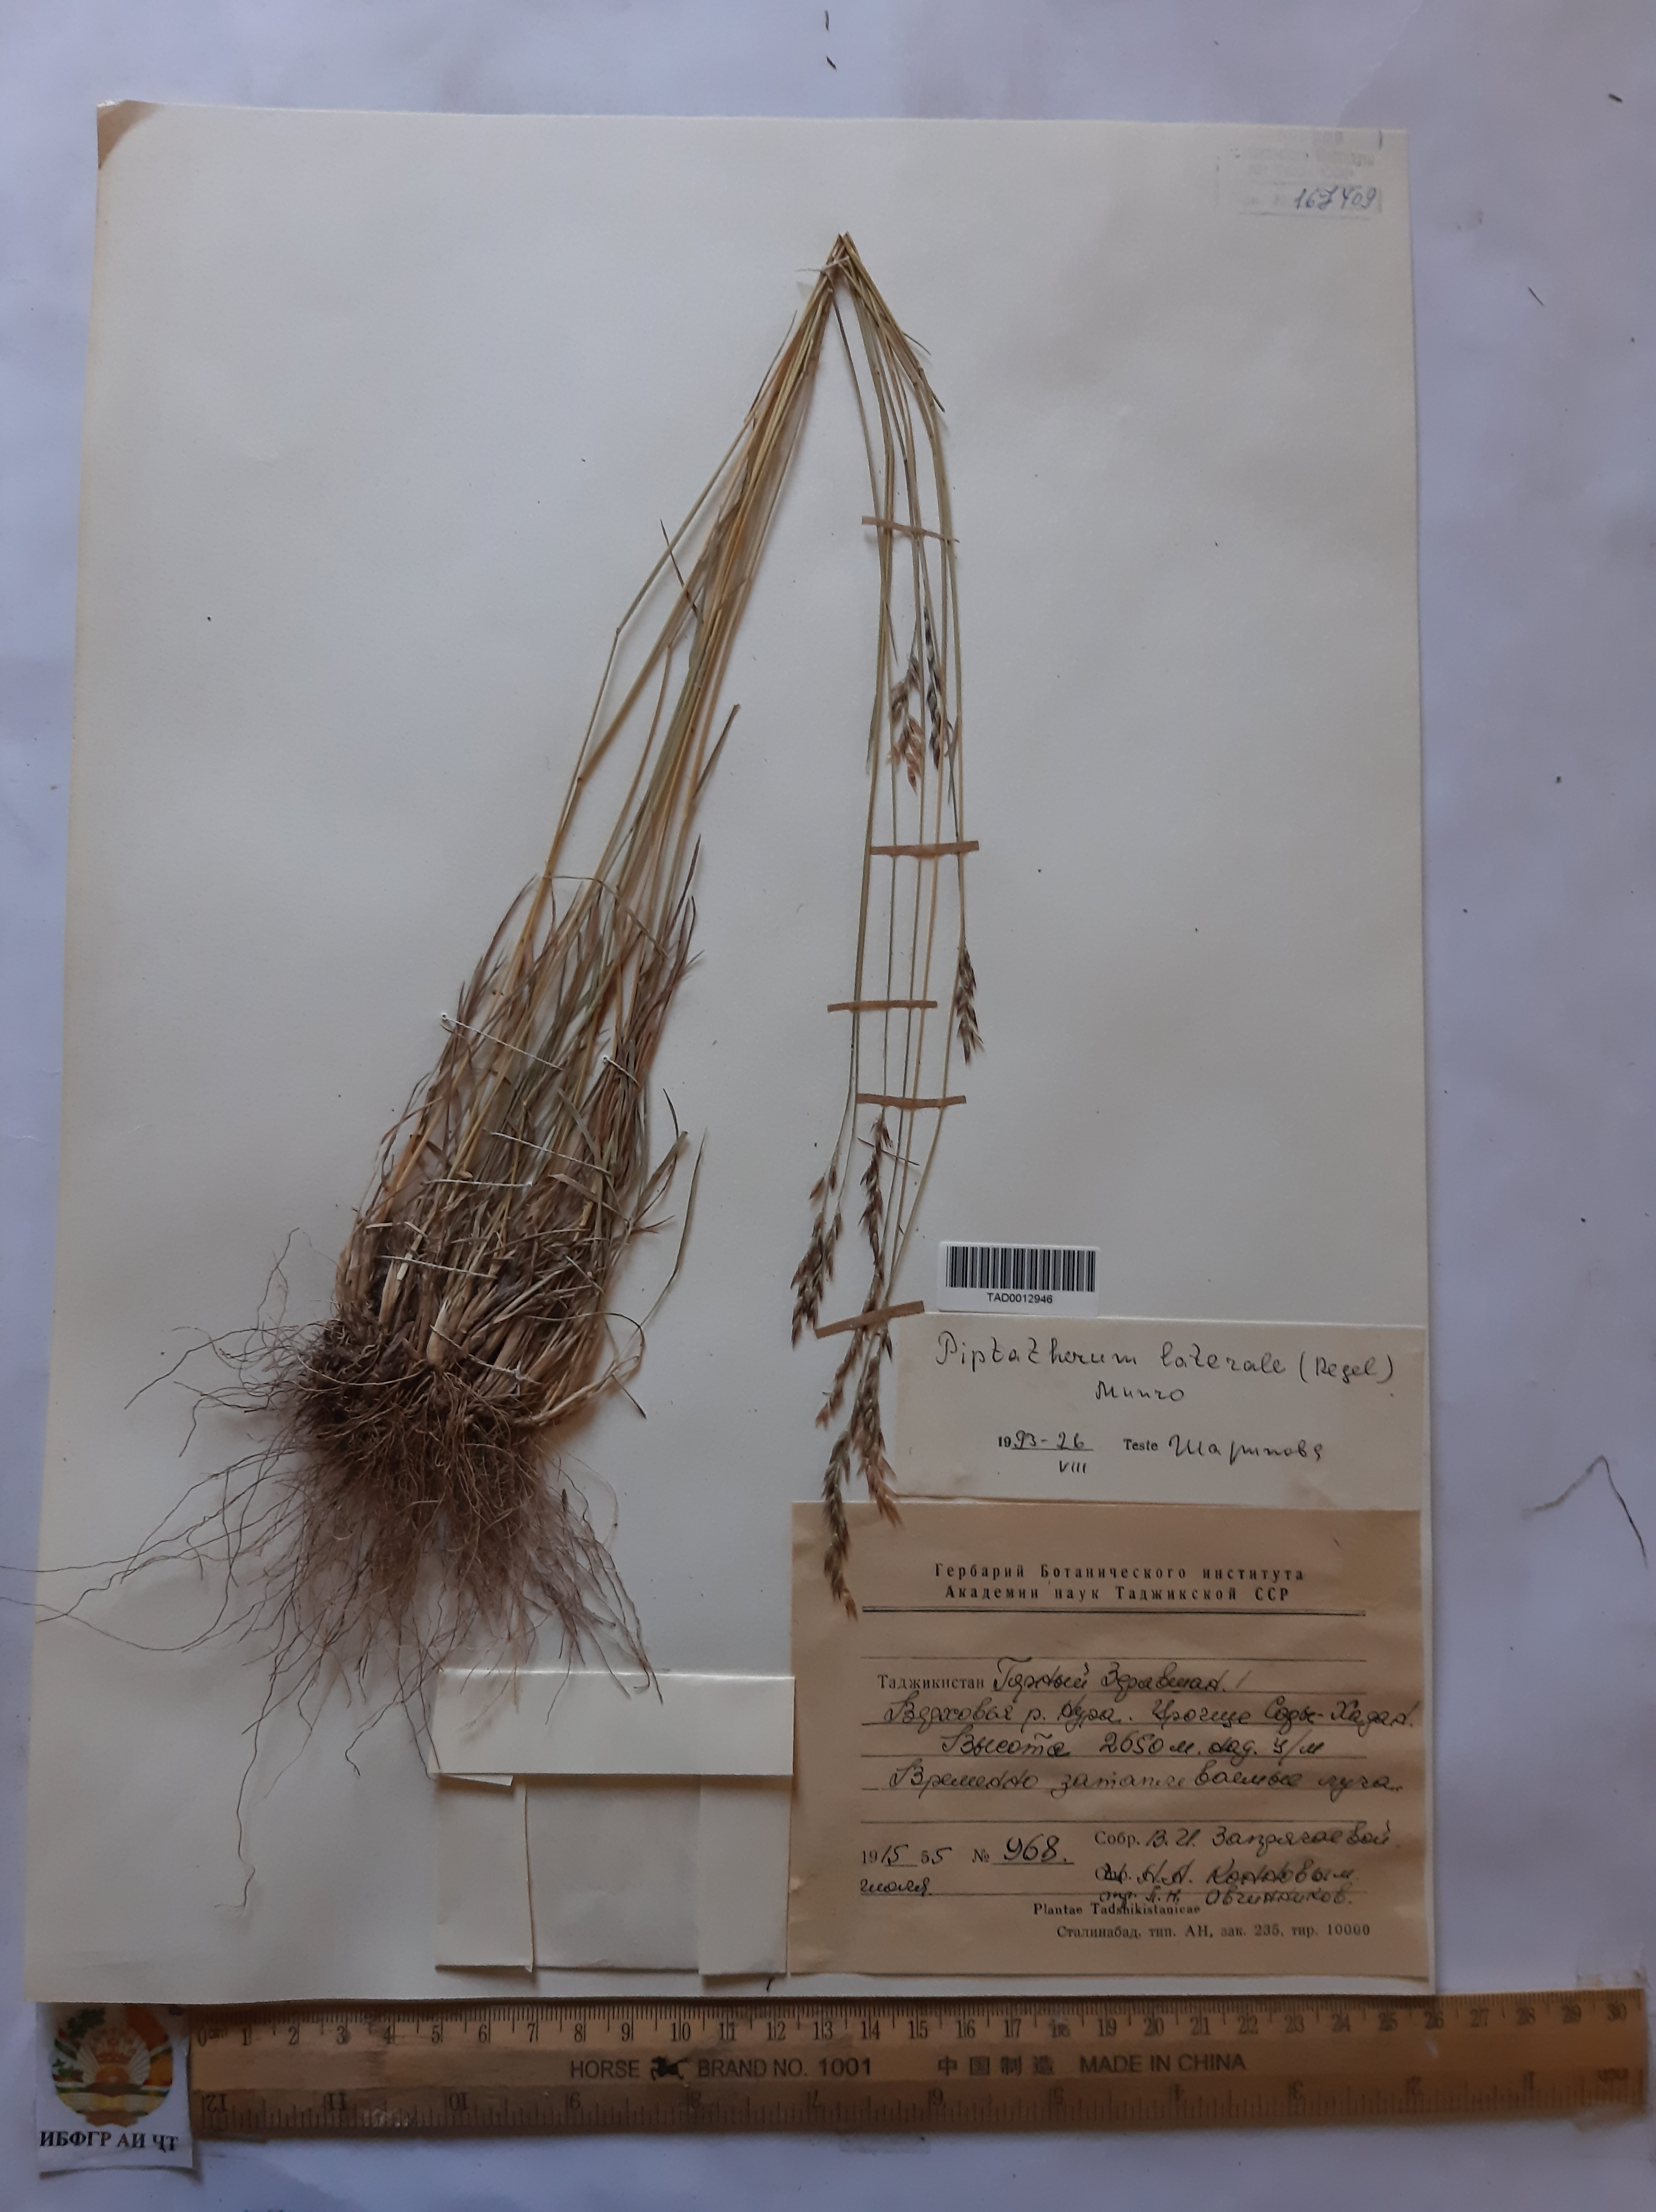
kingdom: Plantae
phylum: Tracheophyta
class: Liliopsida
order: Poales
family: Poaceae
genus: Piptatherum
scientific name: Piptatherum laterale
